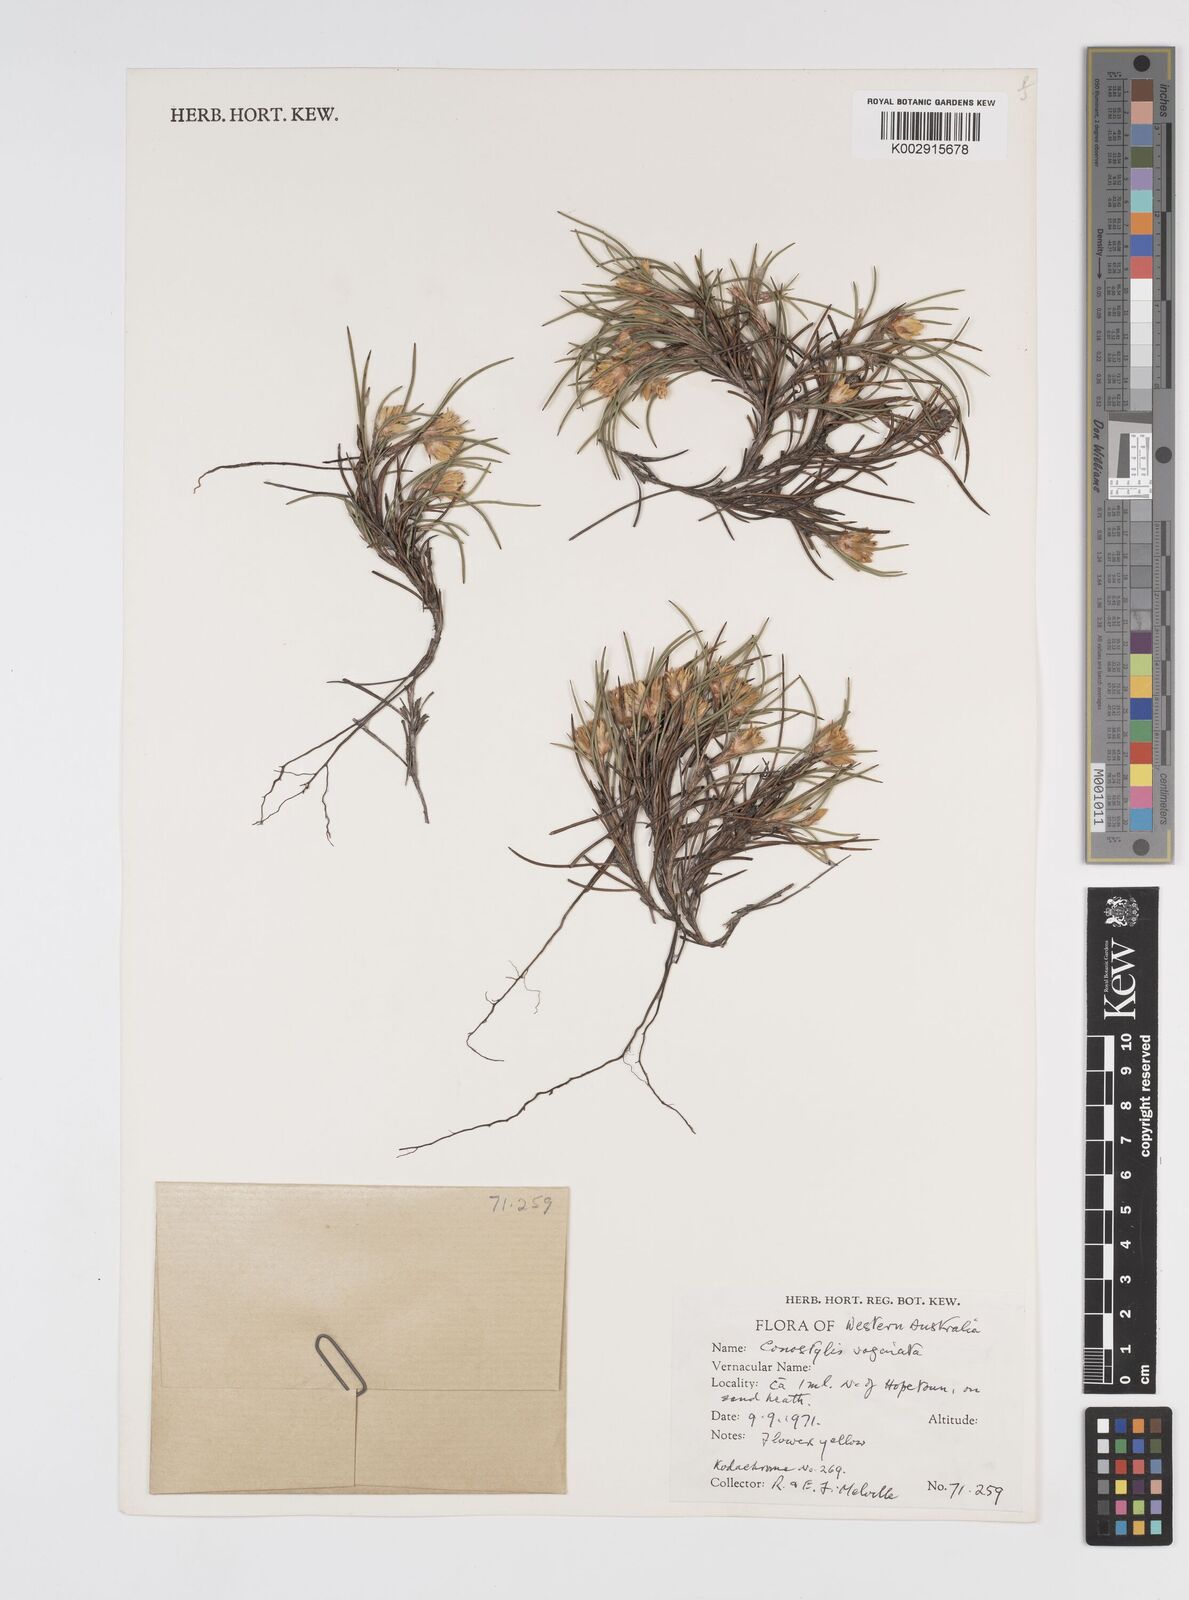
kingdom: Plantae
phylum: Tracheophyta
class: Liliopsida
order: Commelinales
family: Haemodoraceae
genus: Conostylis
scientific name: Conostylis vaginata
